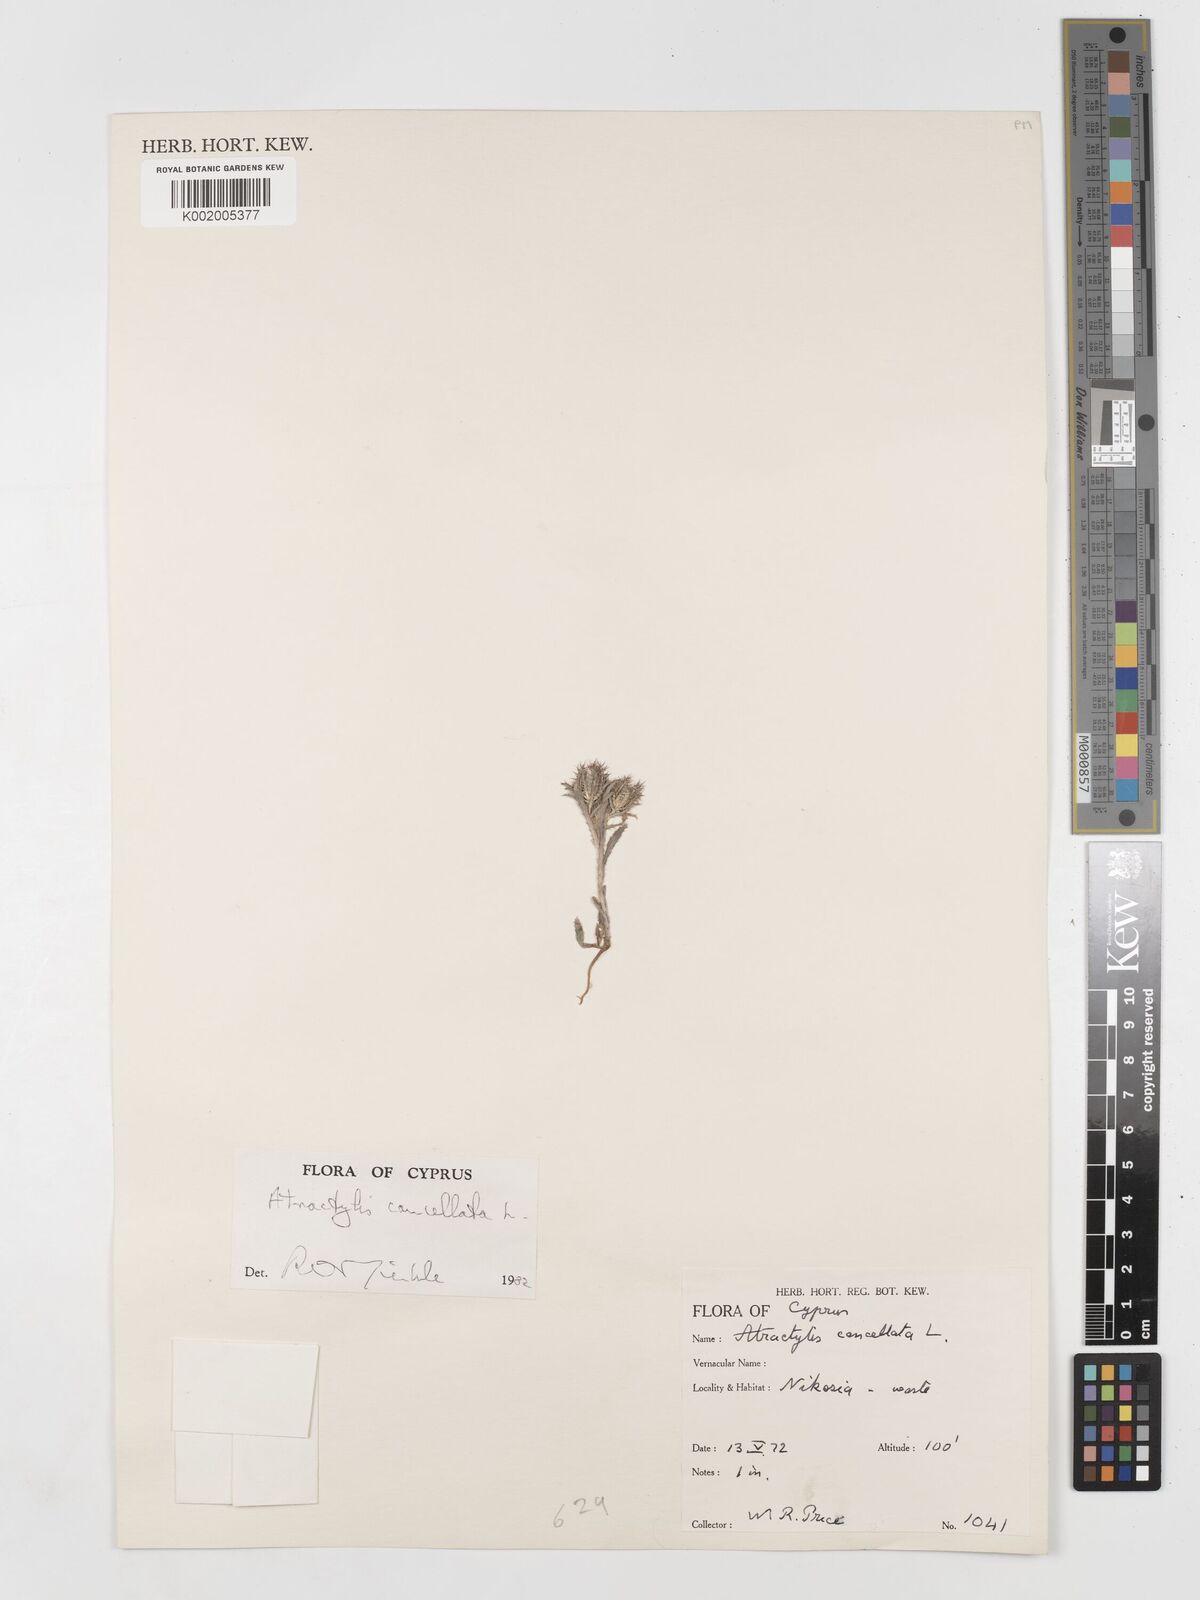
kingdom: Plantae
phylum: Tracheophyta
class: Magnoliopsida
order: Asterales
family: Asteraceae
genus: Atractylis
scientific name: Atractylis cancellata
